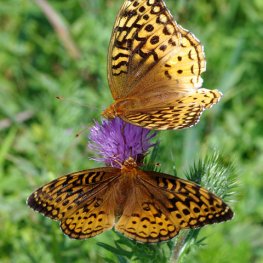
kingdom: Animalia
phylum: Arthropoda
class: Insecta
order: Lepidoptera
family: Nymphalidae
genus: Speyeria
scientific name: Speyeria cybele
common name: Great Spangled Fritillary
